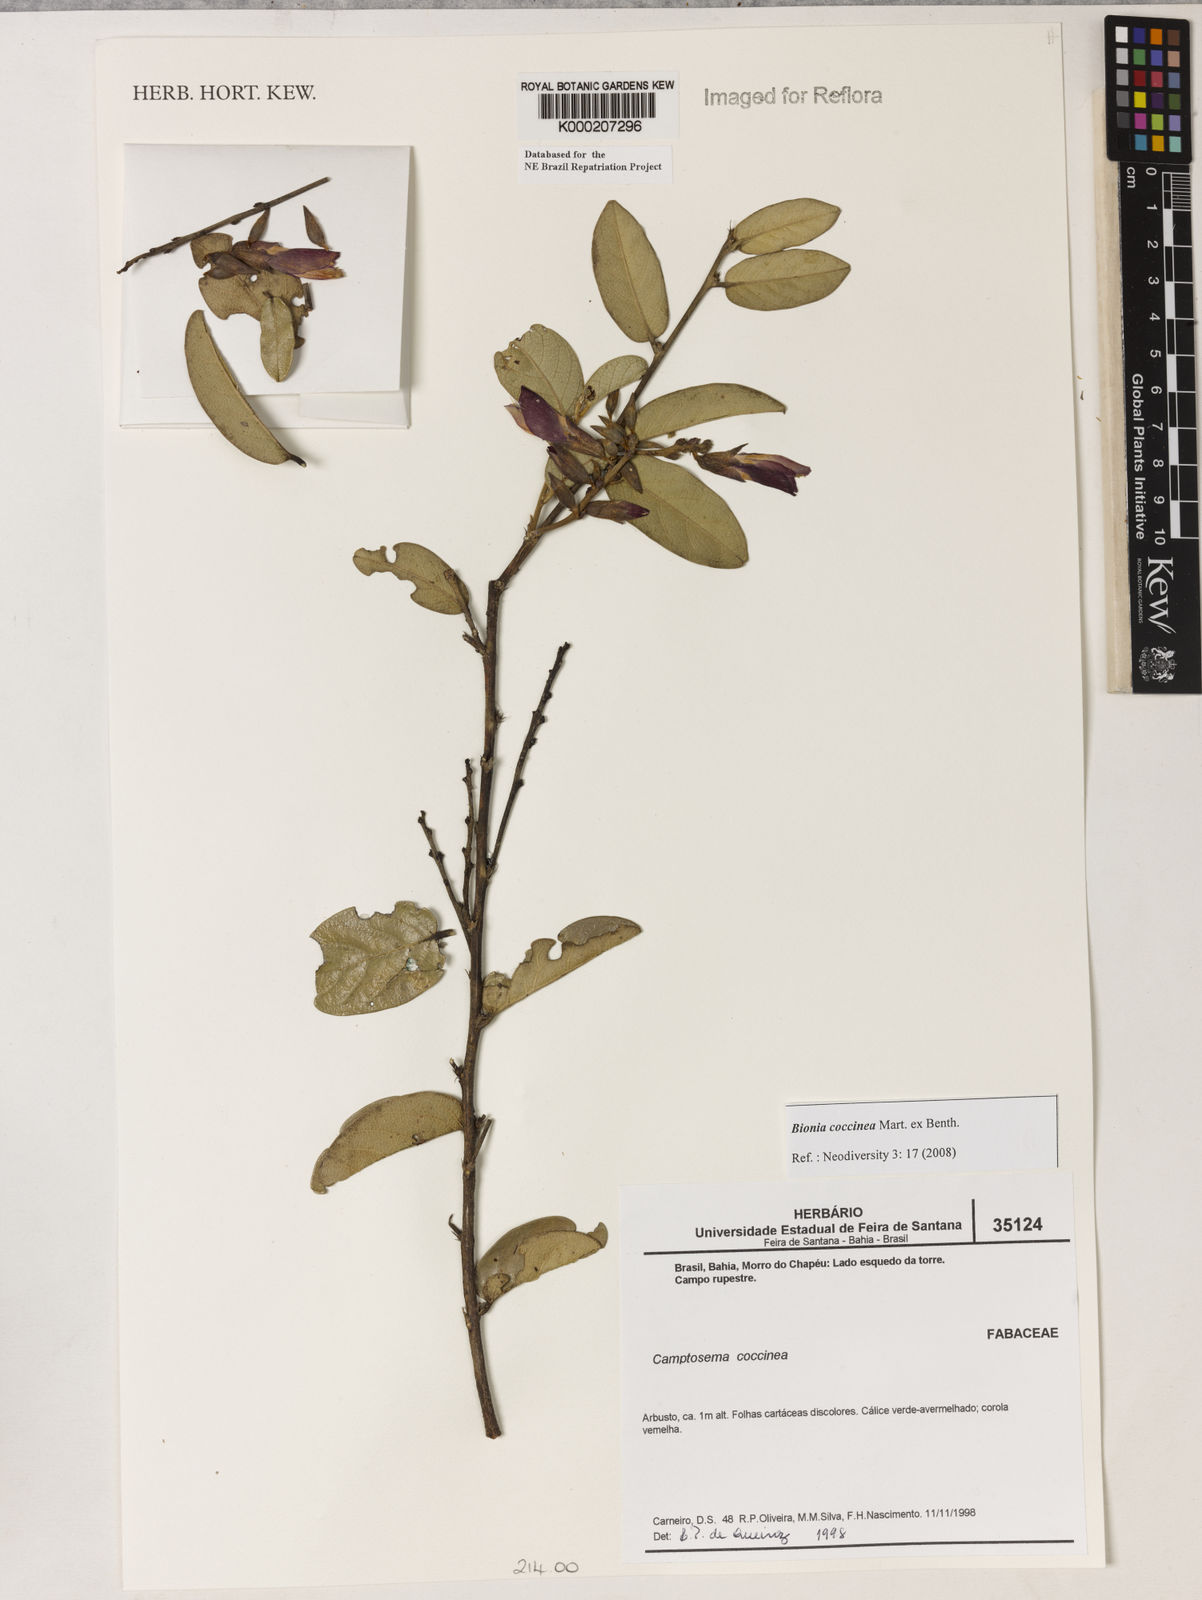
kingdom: Plantae
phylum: Tracheophyta
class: Magnoliopsida
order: Fabales
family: Fabaceae
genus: Camptosema
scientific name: Camptosema coccineum
